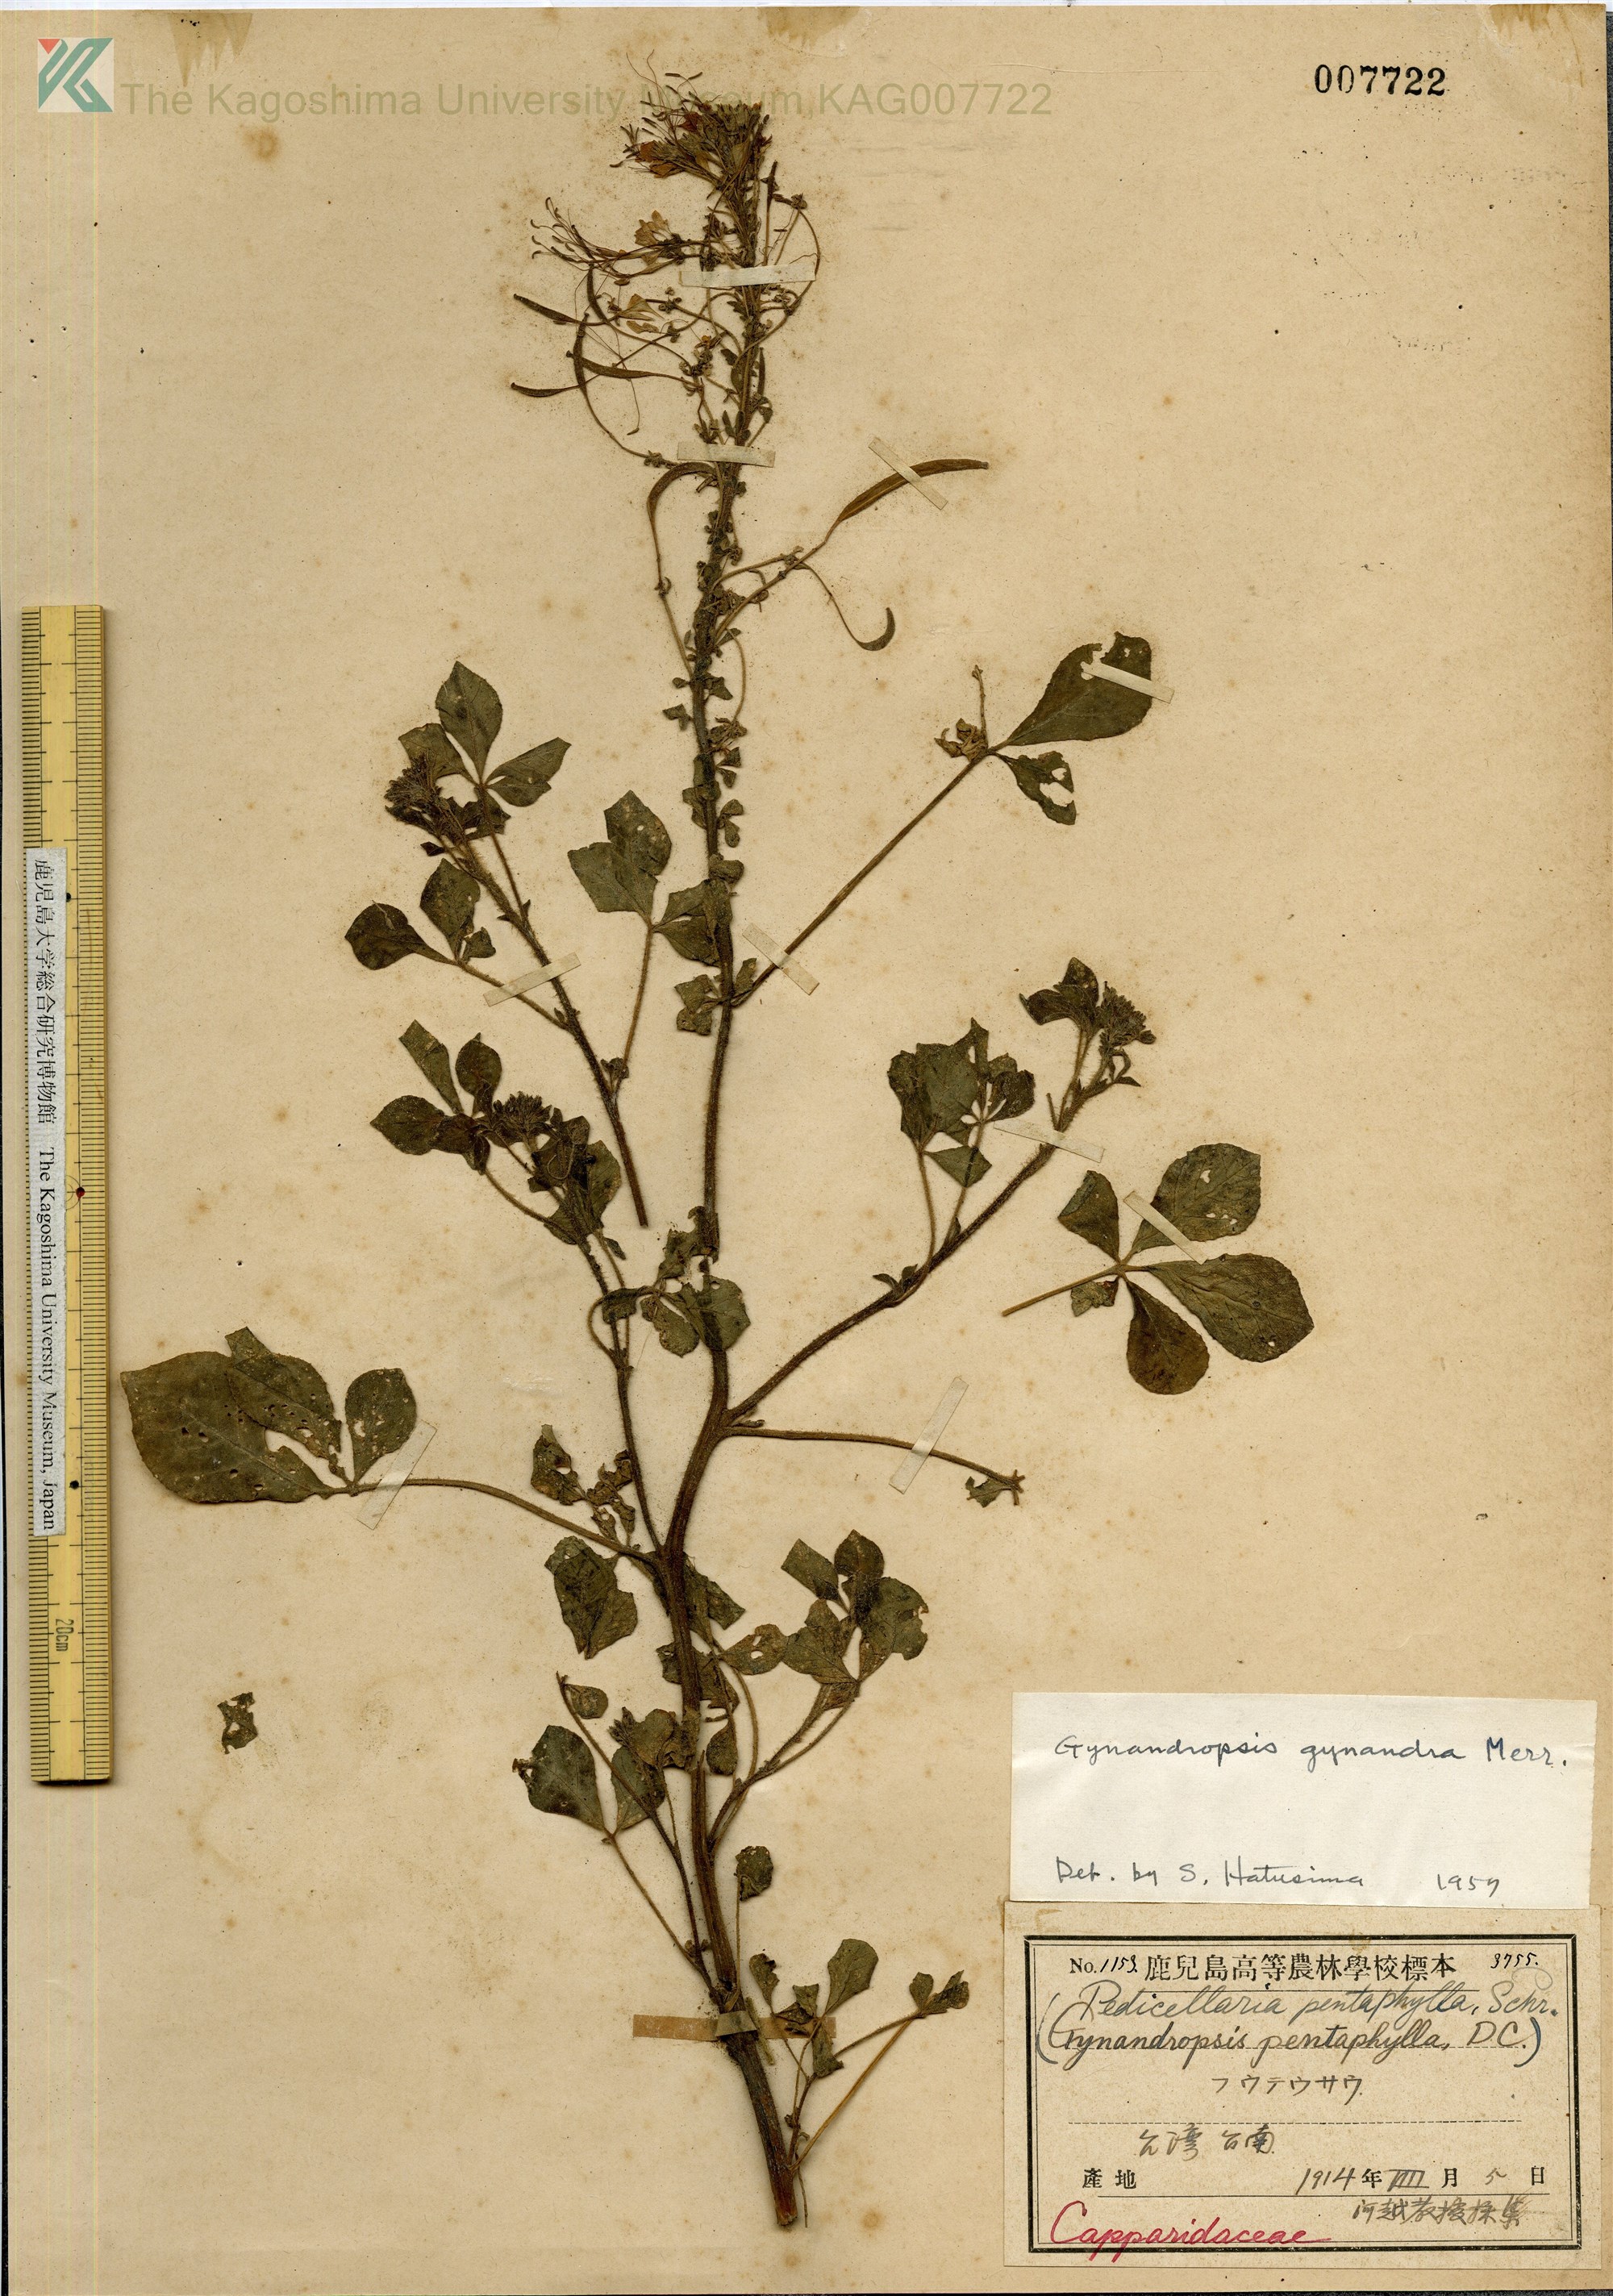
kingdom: Plantae
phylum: Tracheophyta
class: Magnoliopsida
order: Brassicales
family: Cleomaceae
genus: Gynandropsis
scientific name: Gynandropsis gynandra
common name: Spiderwisp
